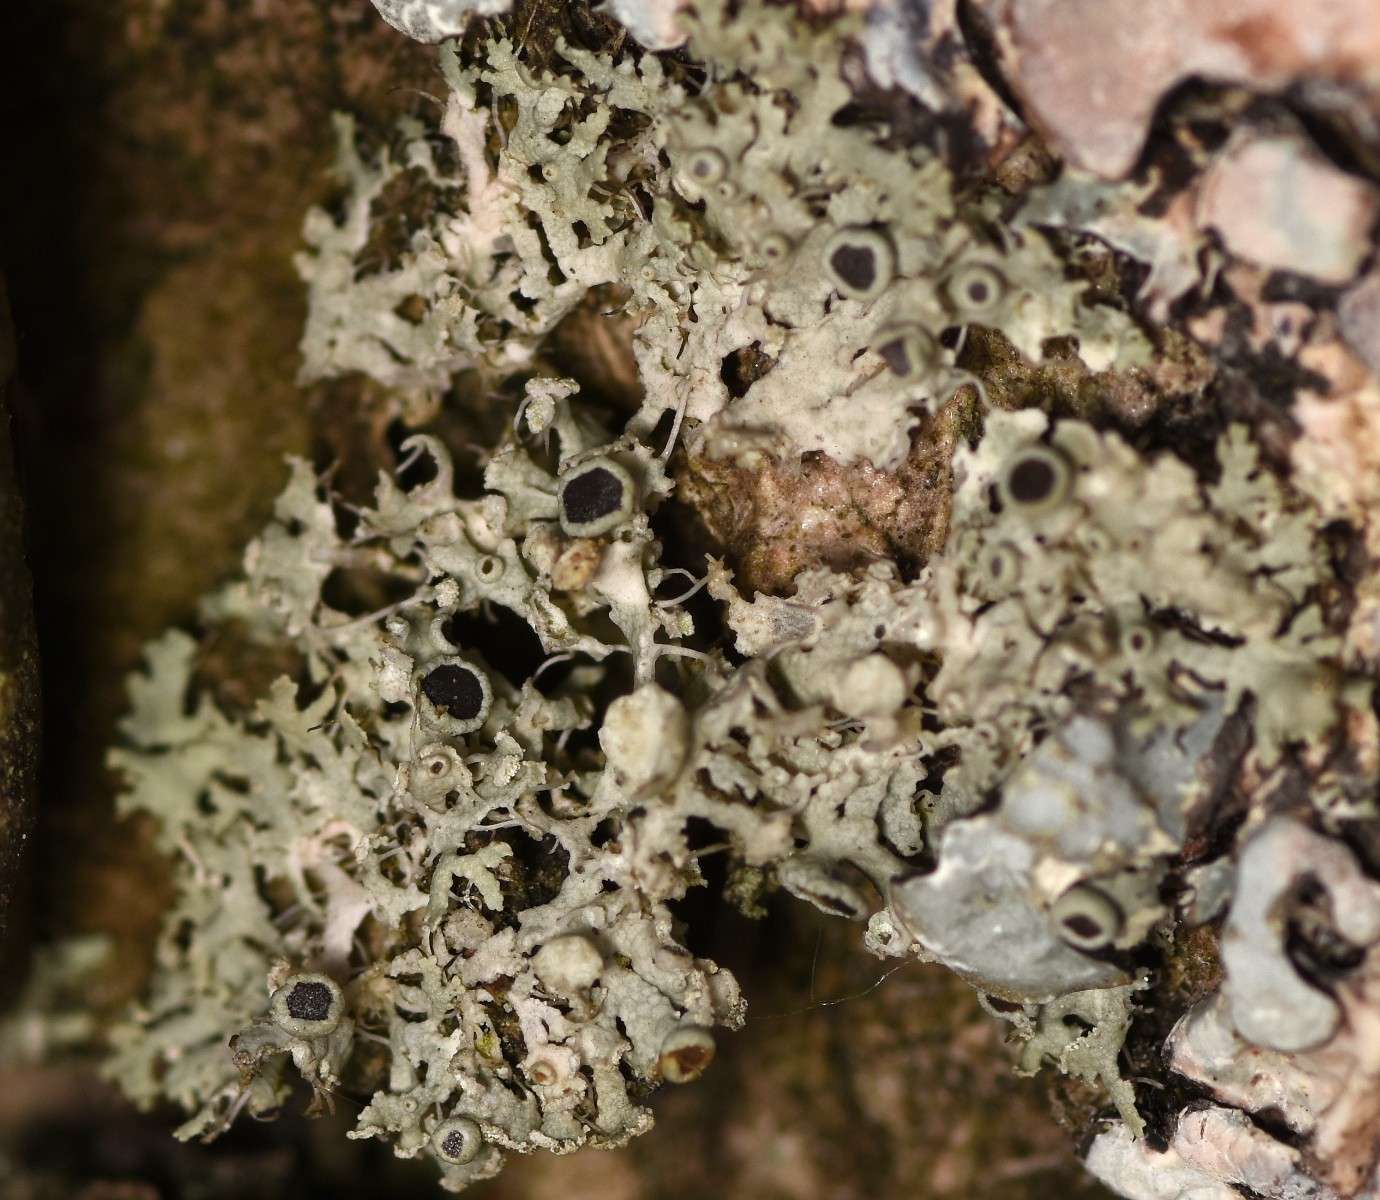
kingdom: Fungi
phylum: Ascomycota
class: Lecanoromycetes
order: Caliciales
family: Physciaceae
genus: Physcia
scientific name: Physcia tenella
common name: spæd rosetlav
